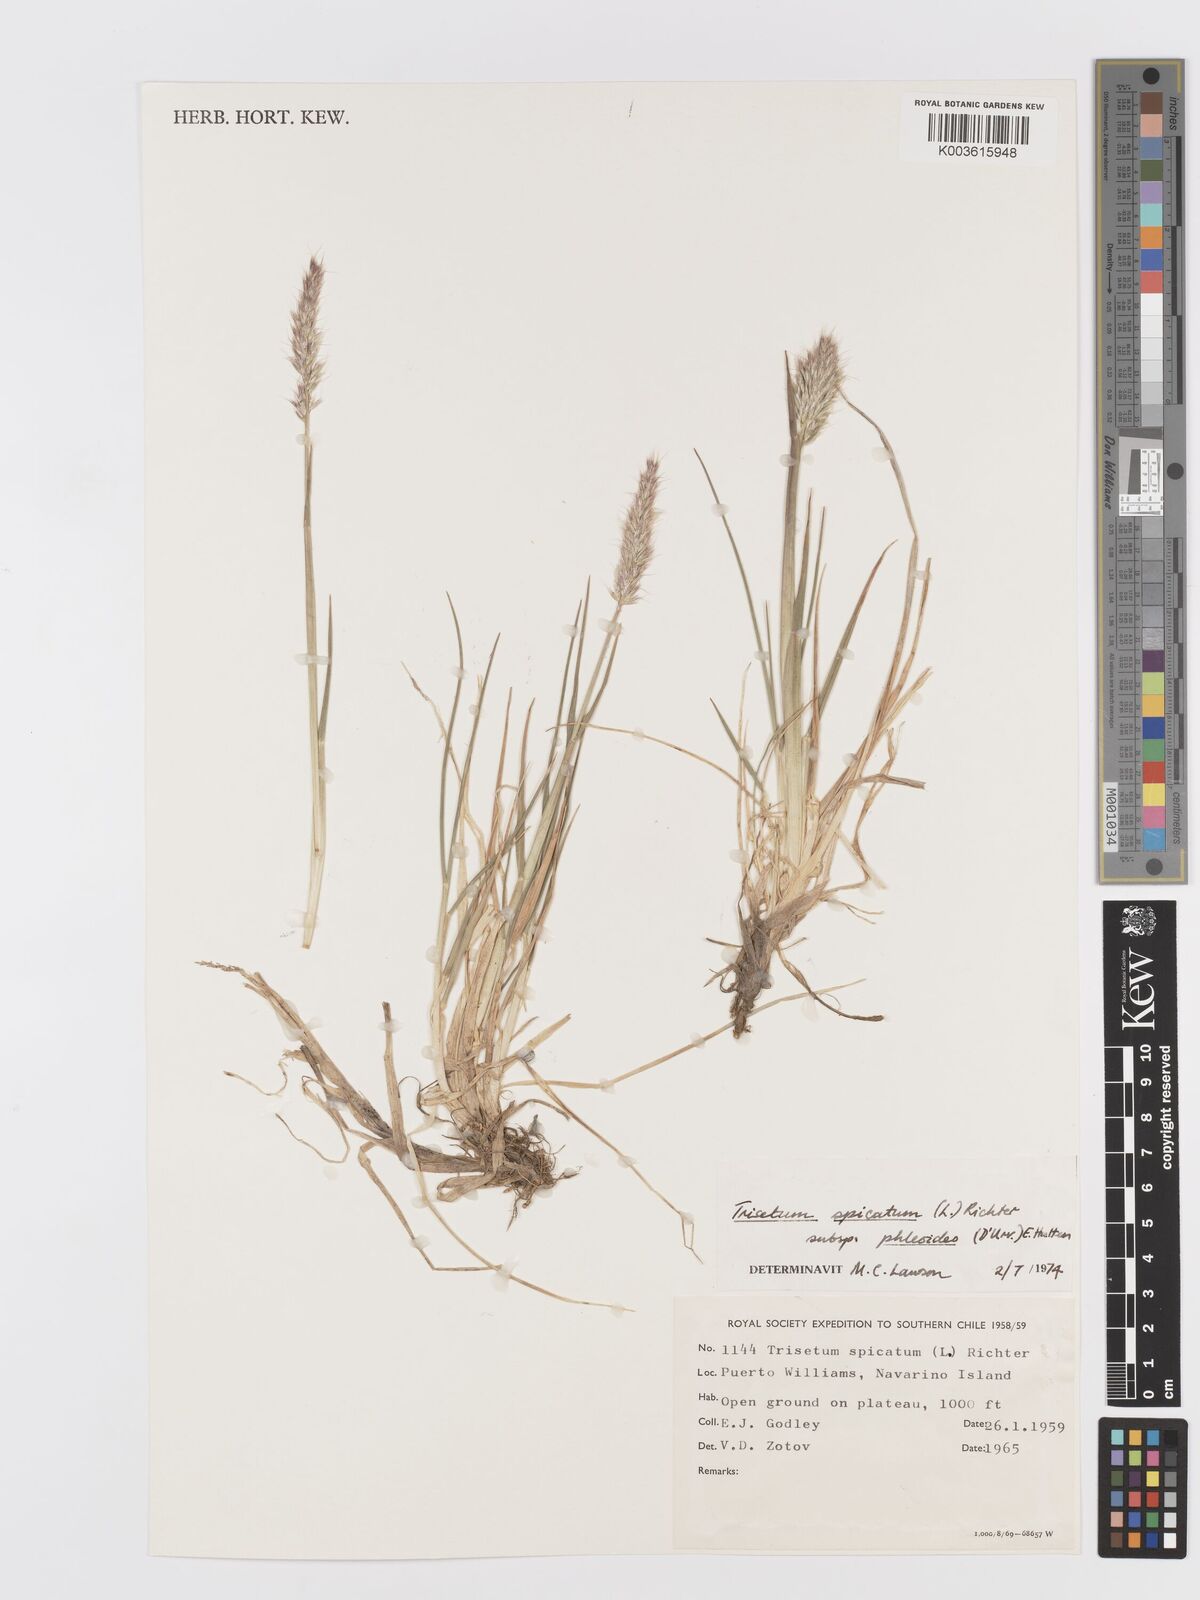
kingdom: Plantae
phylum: Tracheophyta
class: Liliopsida
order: Poales
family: Poaceae
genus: Koeleria
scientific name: Koeleria spicata
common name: Mountain trisetum
